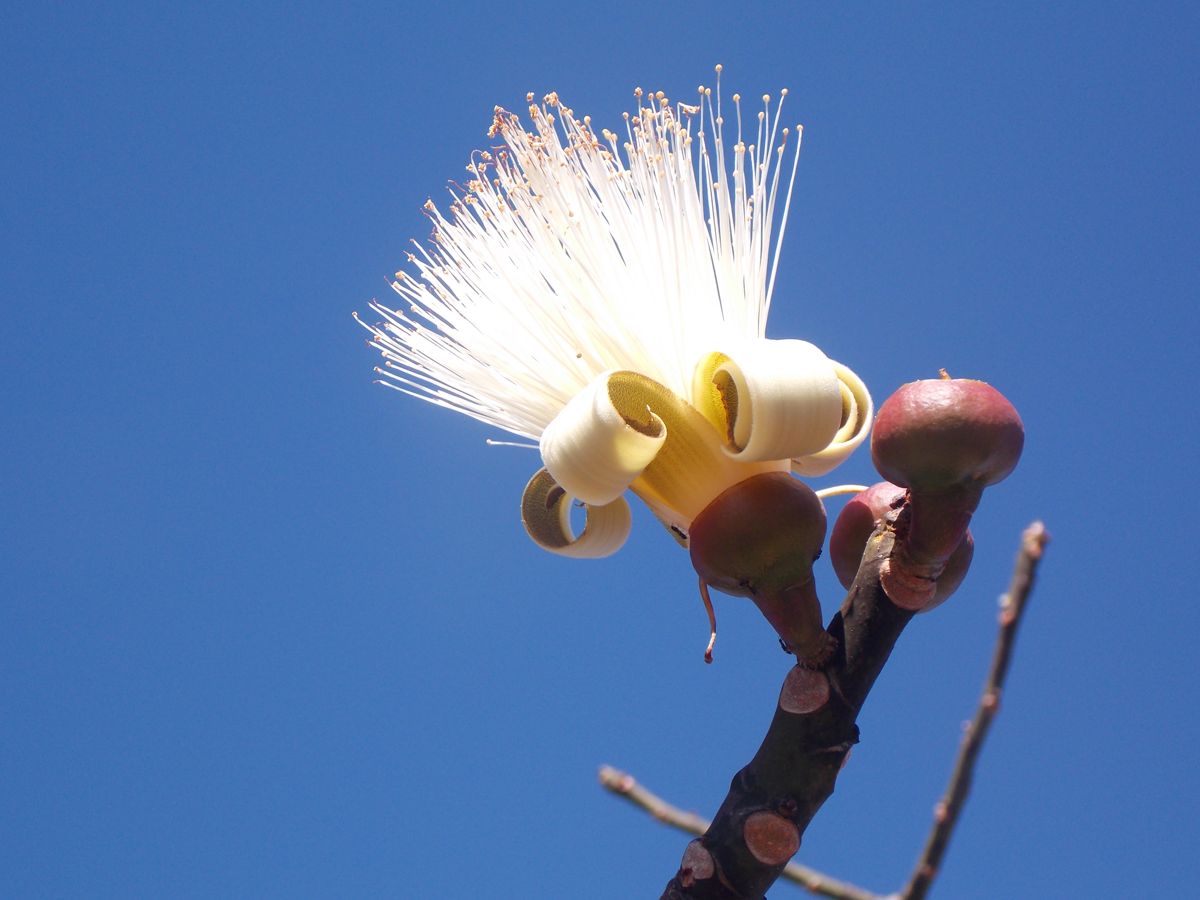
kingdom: Plantae
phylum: Tracheophyta
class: Magnoliopsida
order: Malvales
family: Malvaceae
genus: Pseudobombax
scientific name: Pseudobombax septenatum
